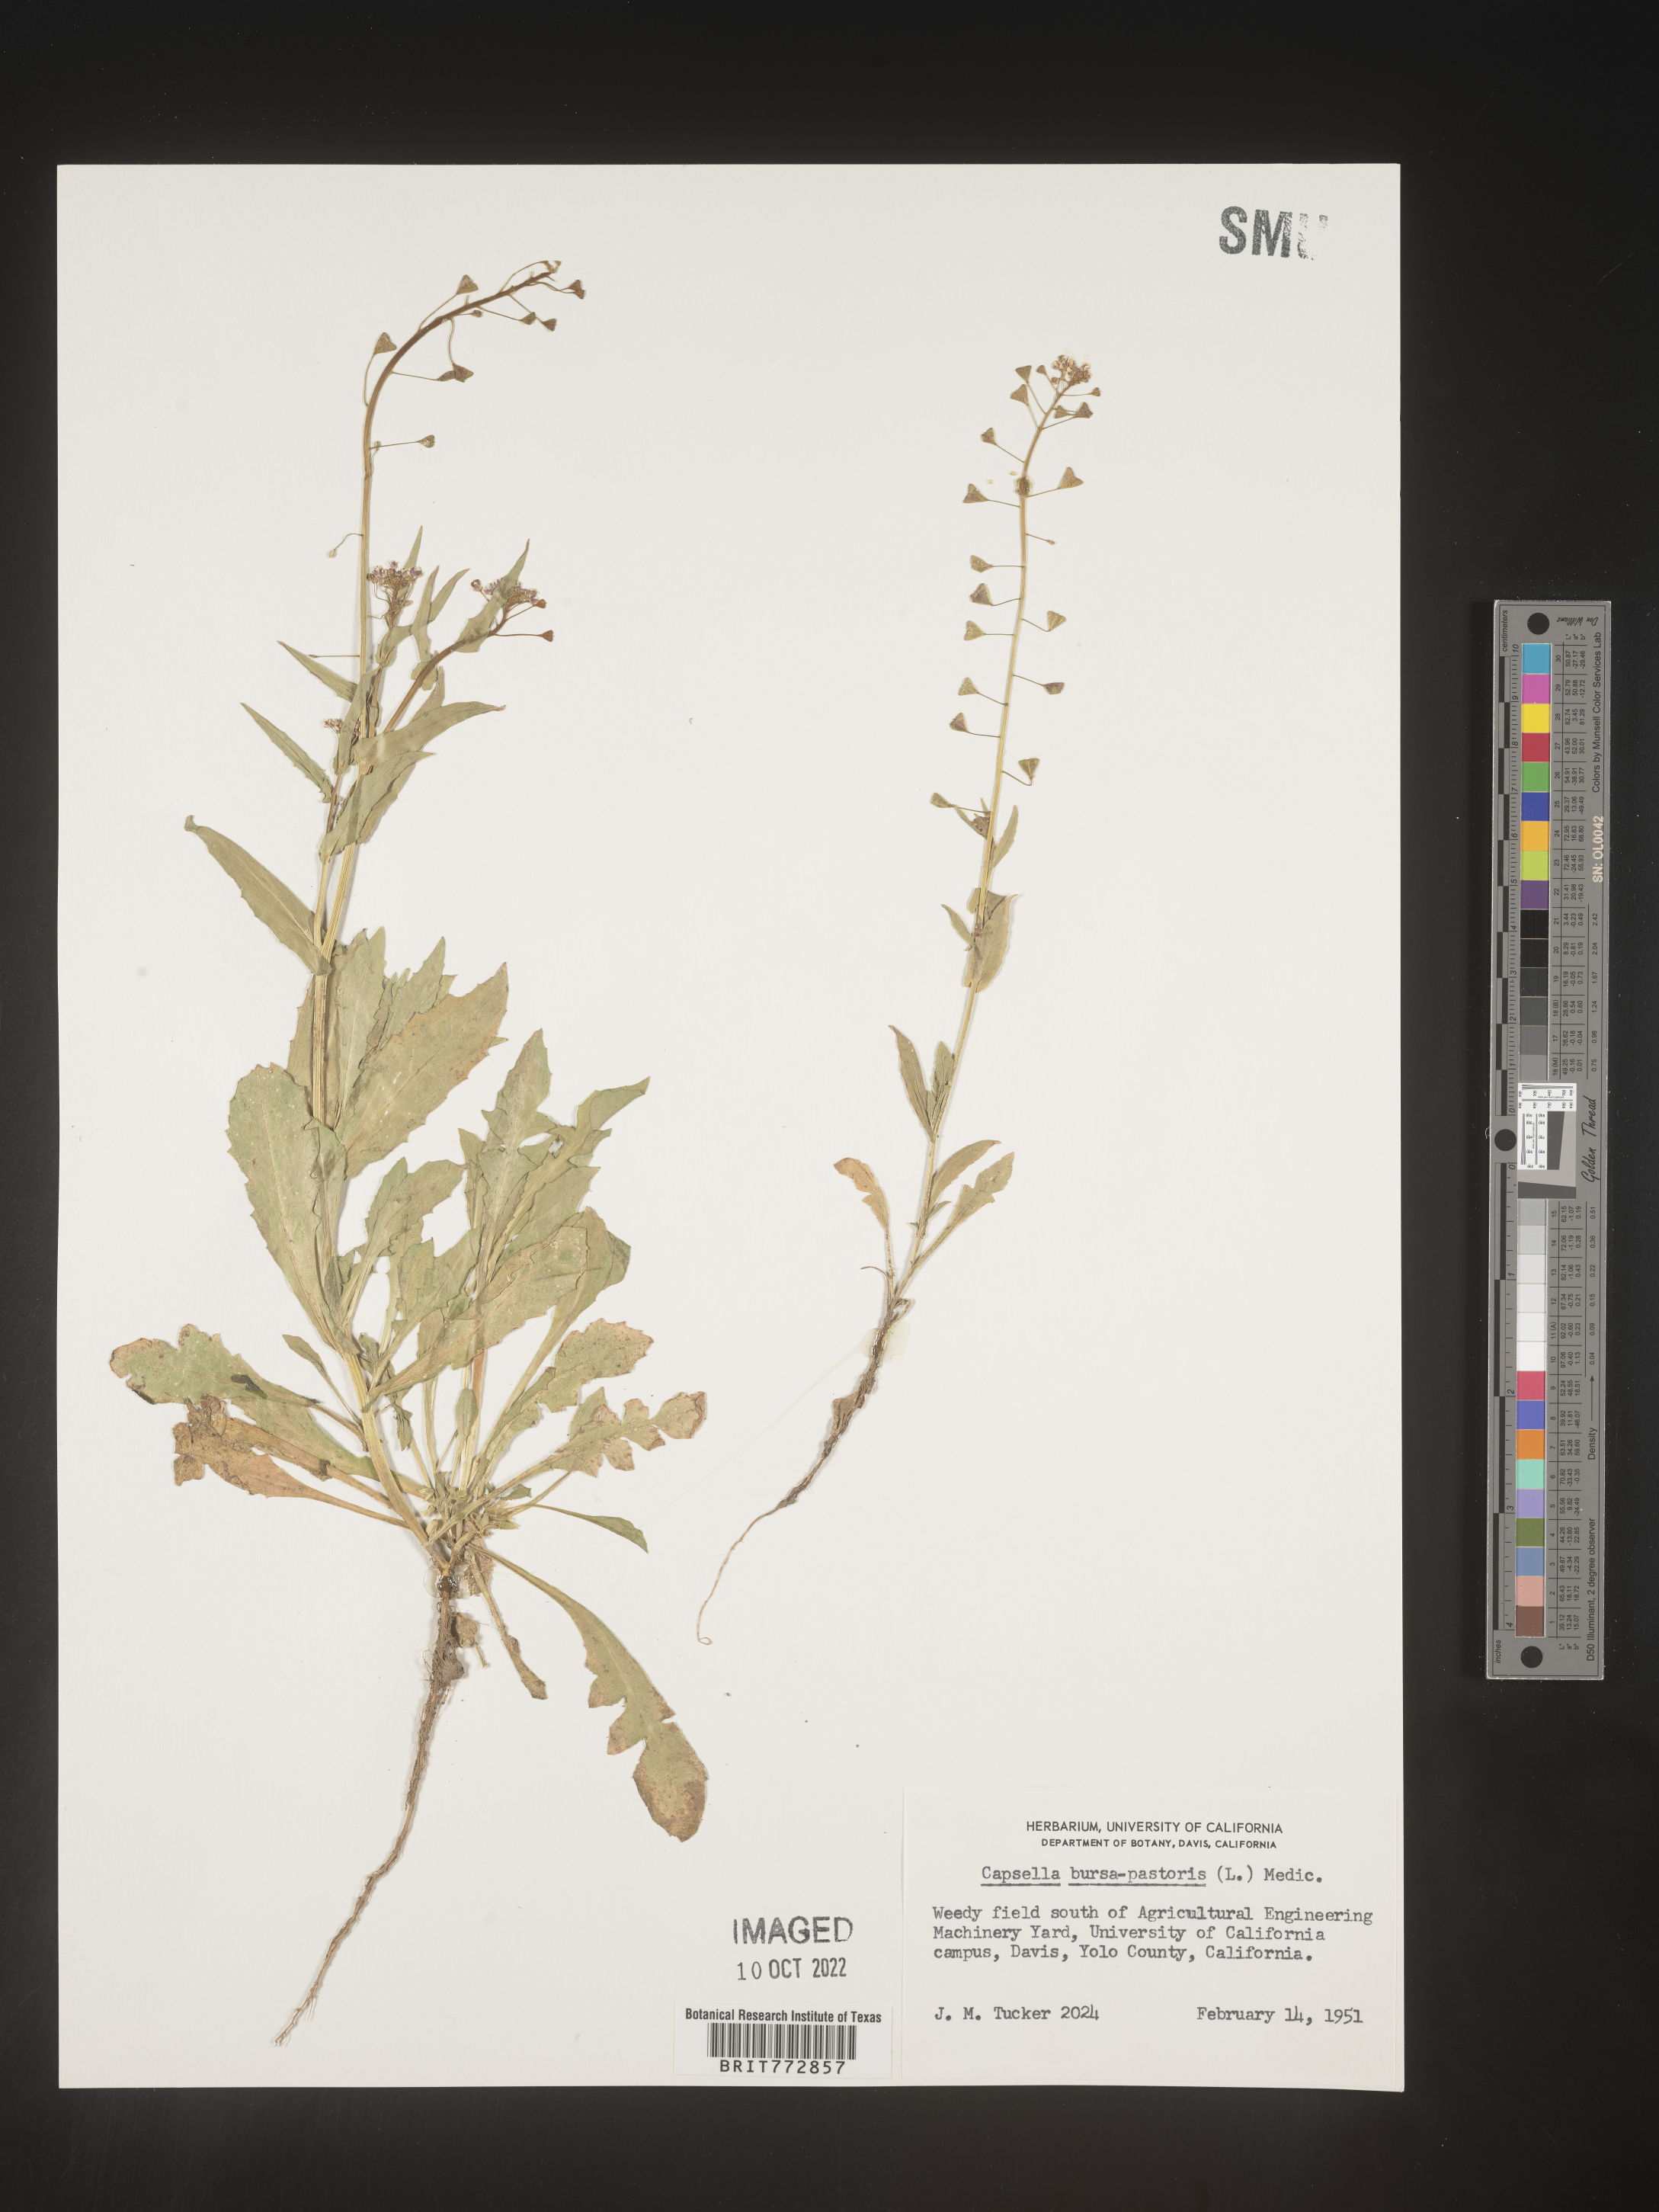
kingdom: Plantae
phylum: Tracheophyta
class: Magnoliopsida
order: Brassicales
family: Brassicaceae
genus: Capsella
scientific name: Capsella bursa-pastoris
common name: Shepherd's purse
